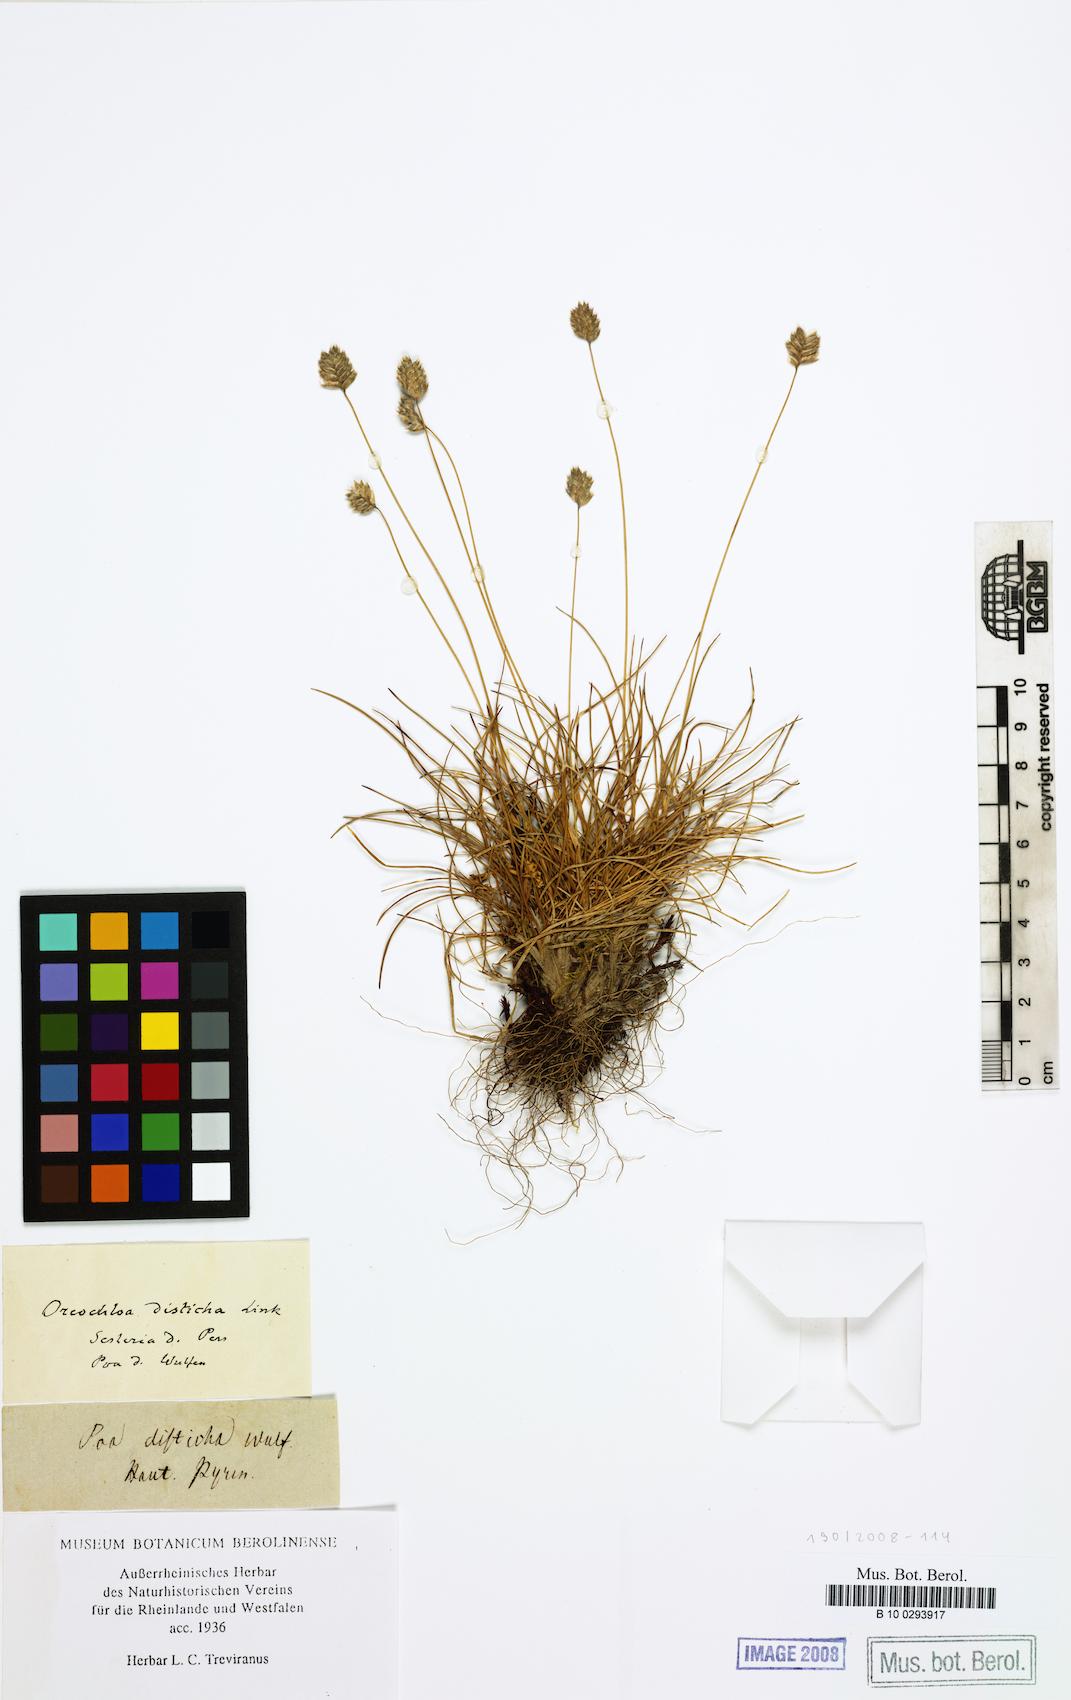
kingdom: Plantae
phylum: Tracheophyta
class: Liliopsida
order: Poales
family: Poaceae
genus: Oreochloa
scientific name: Oreochloa disticha
